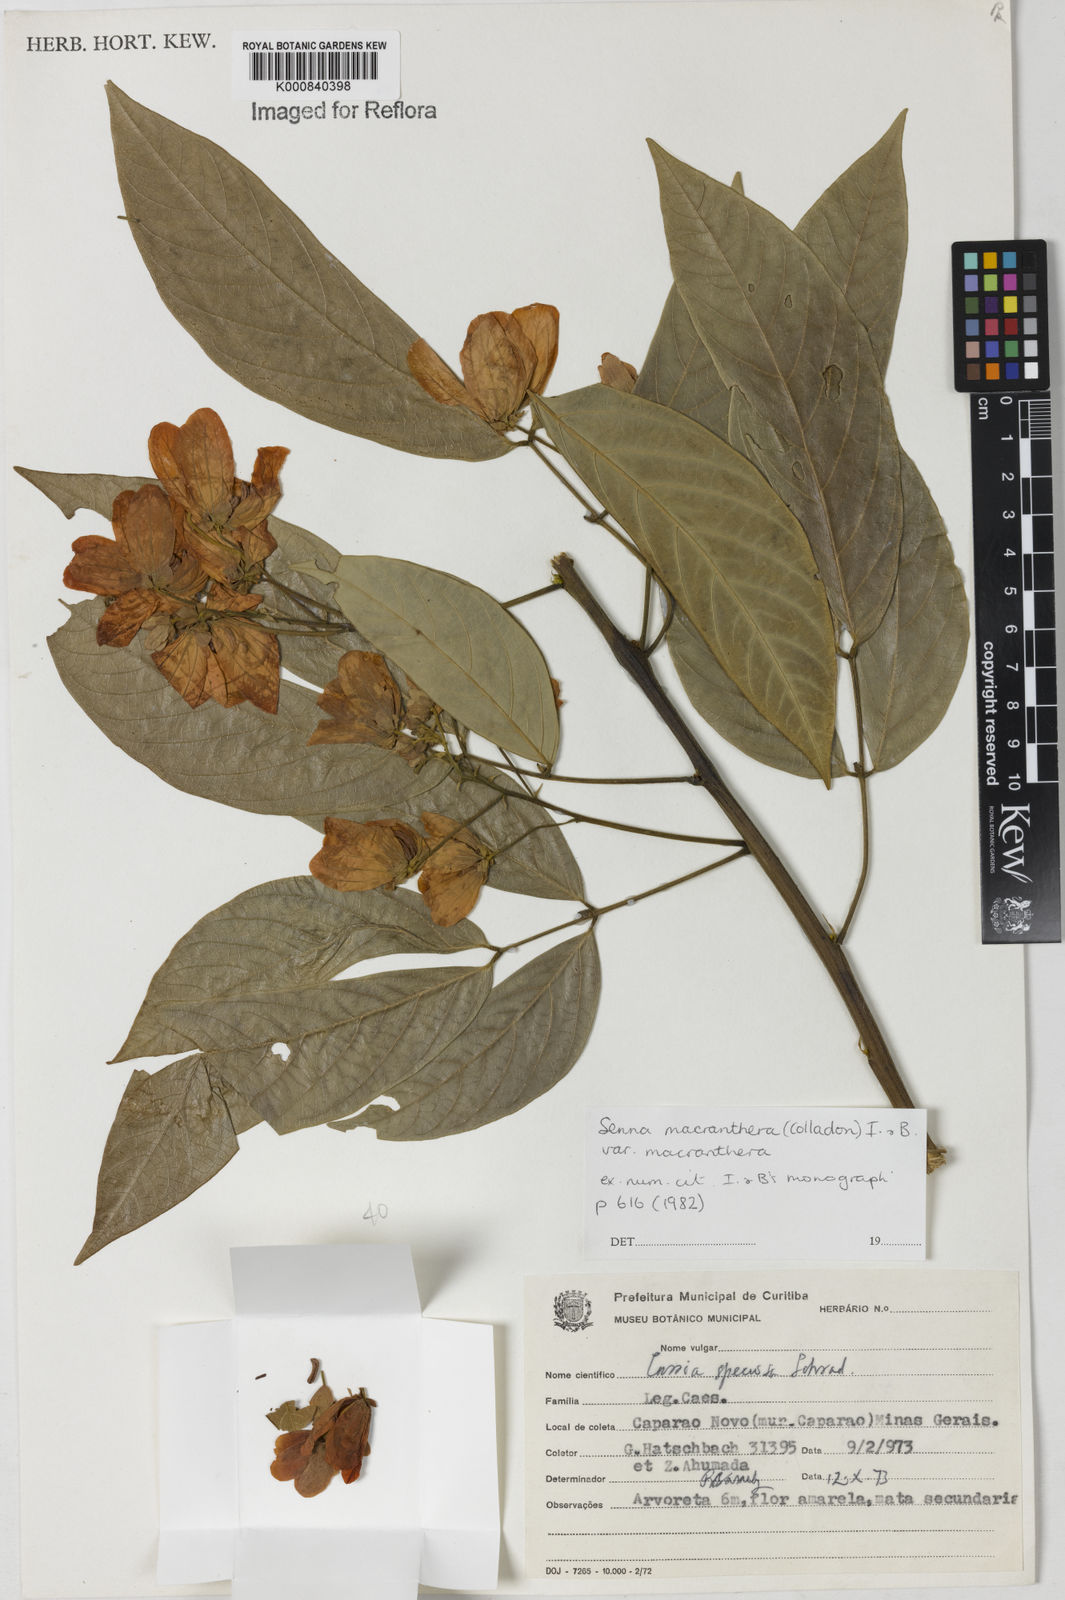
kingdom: Plantae
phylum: Tracheophyta
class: Magnoliopsida
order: Fabales
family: Fabaceae
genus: Senna
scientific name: Senna macranthera
